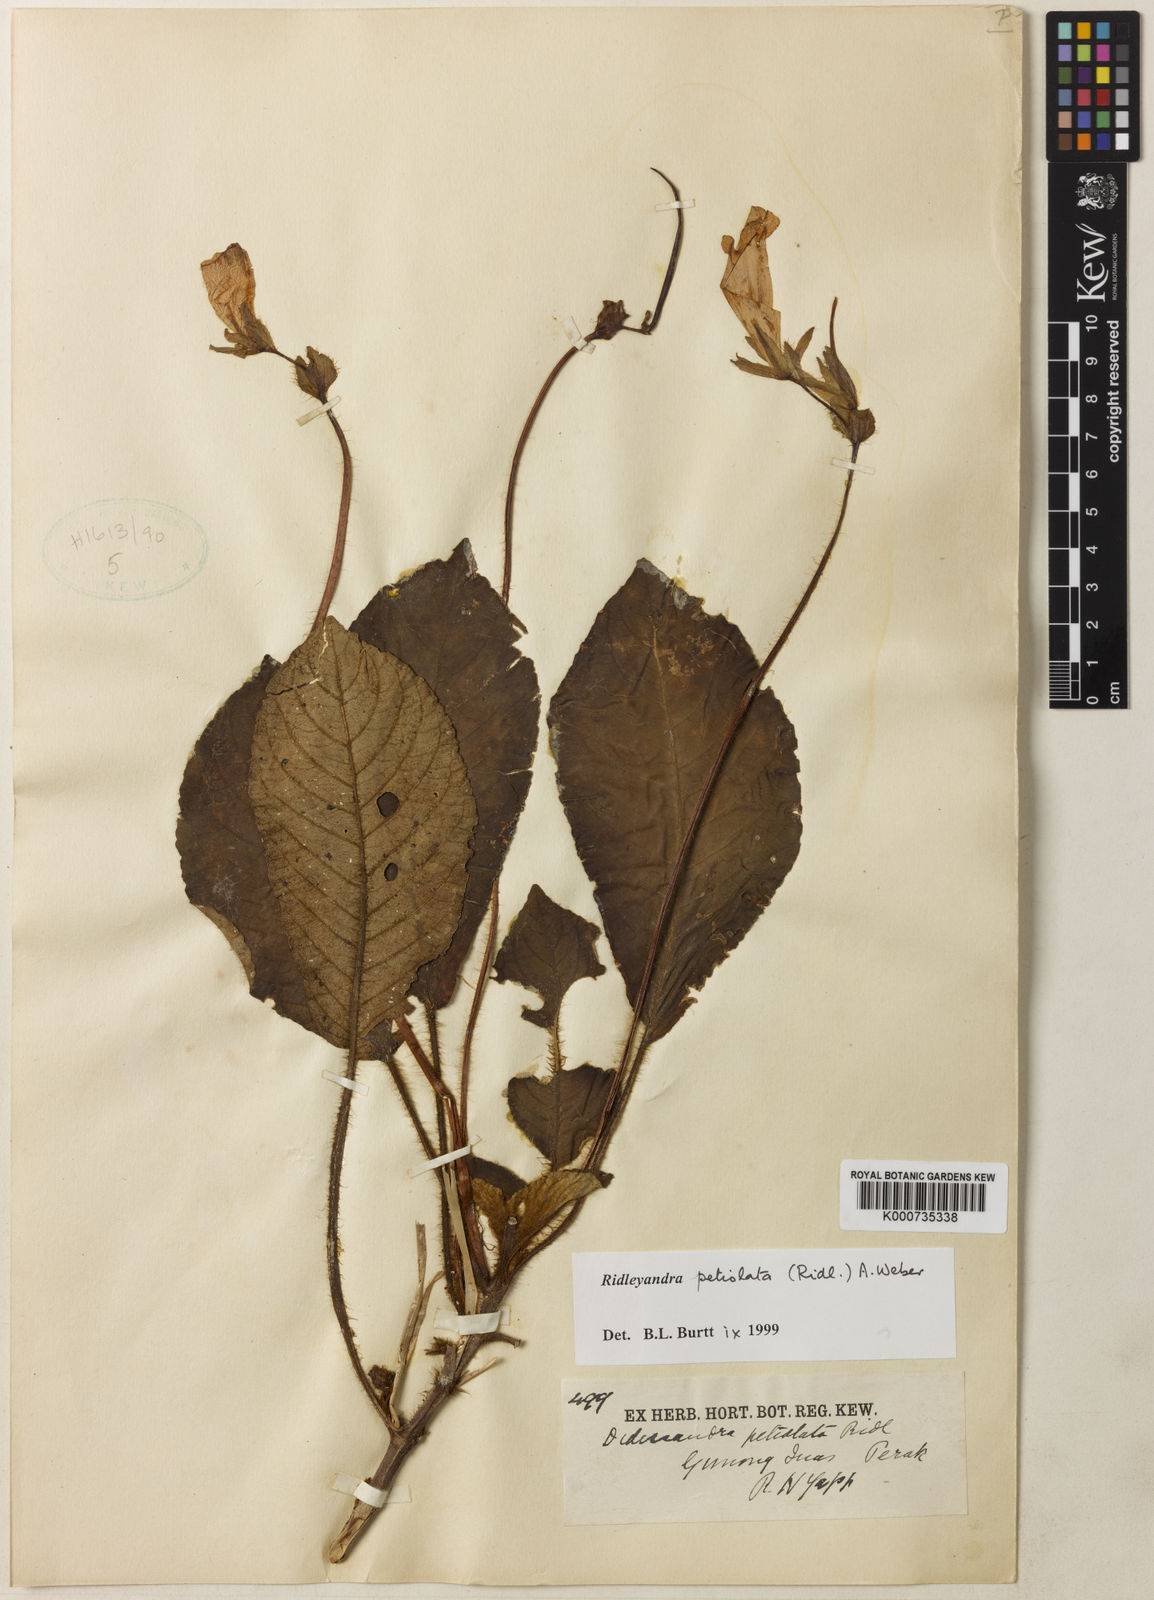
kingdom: Plantae
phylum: Tracheophyta
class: Magnoliopsida
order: Lamiales
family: Gesneriaceae
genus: Ridleyandra
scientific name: Ridleyandra petiolata
